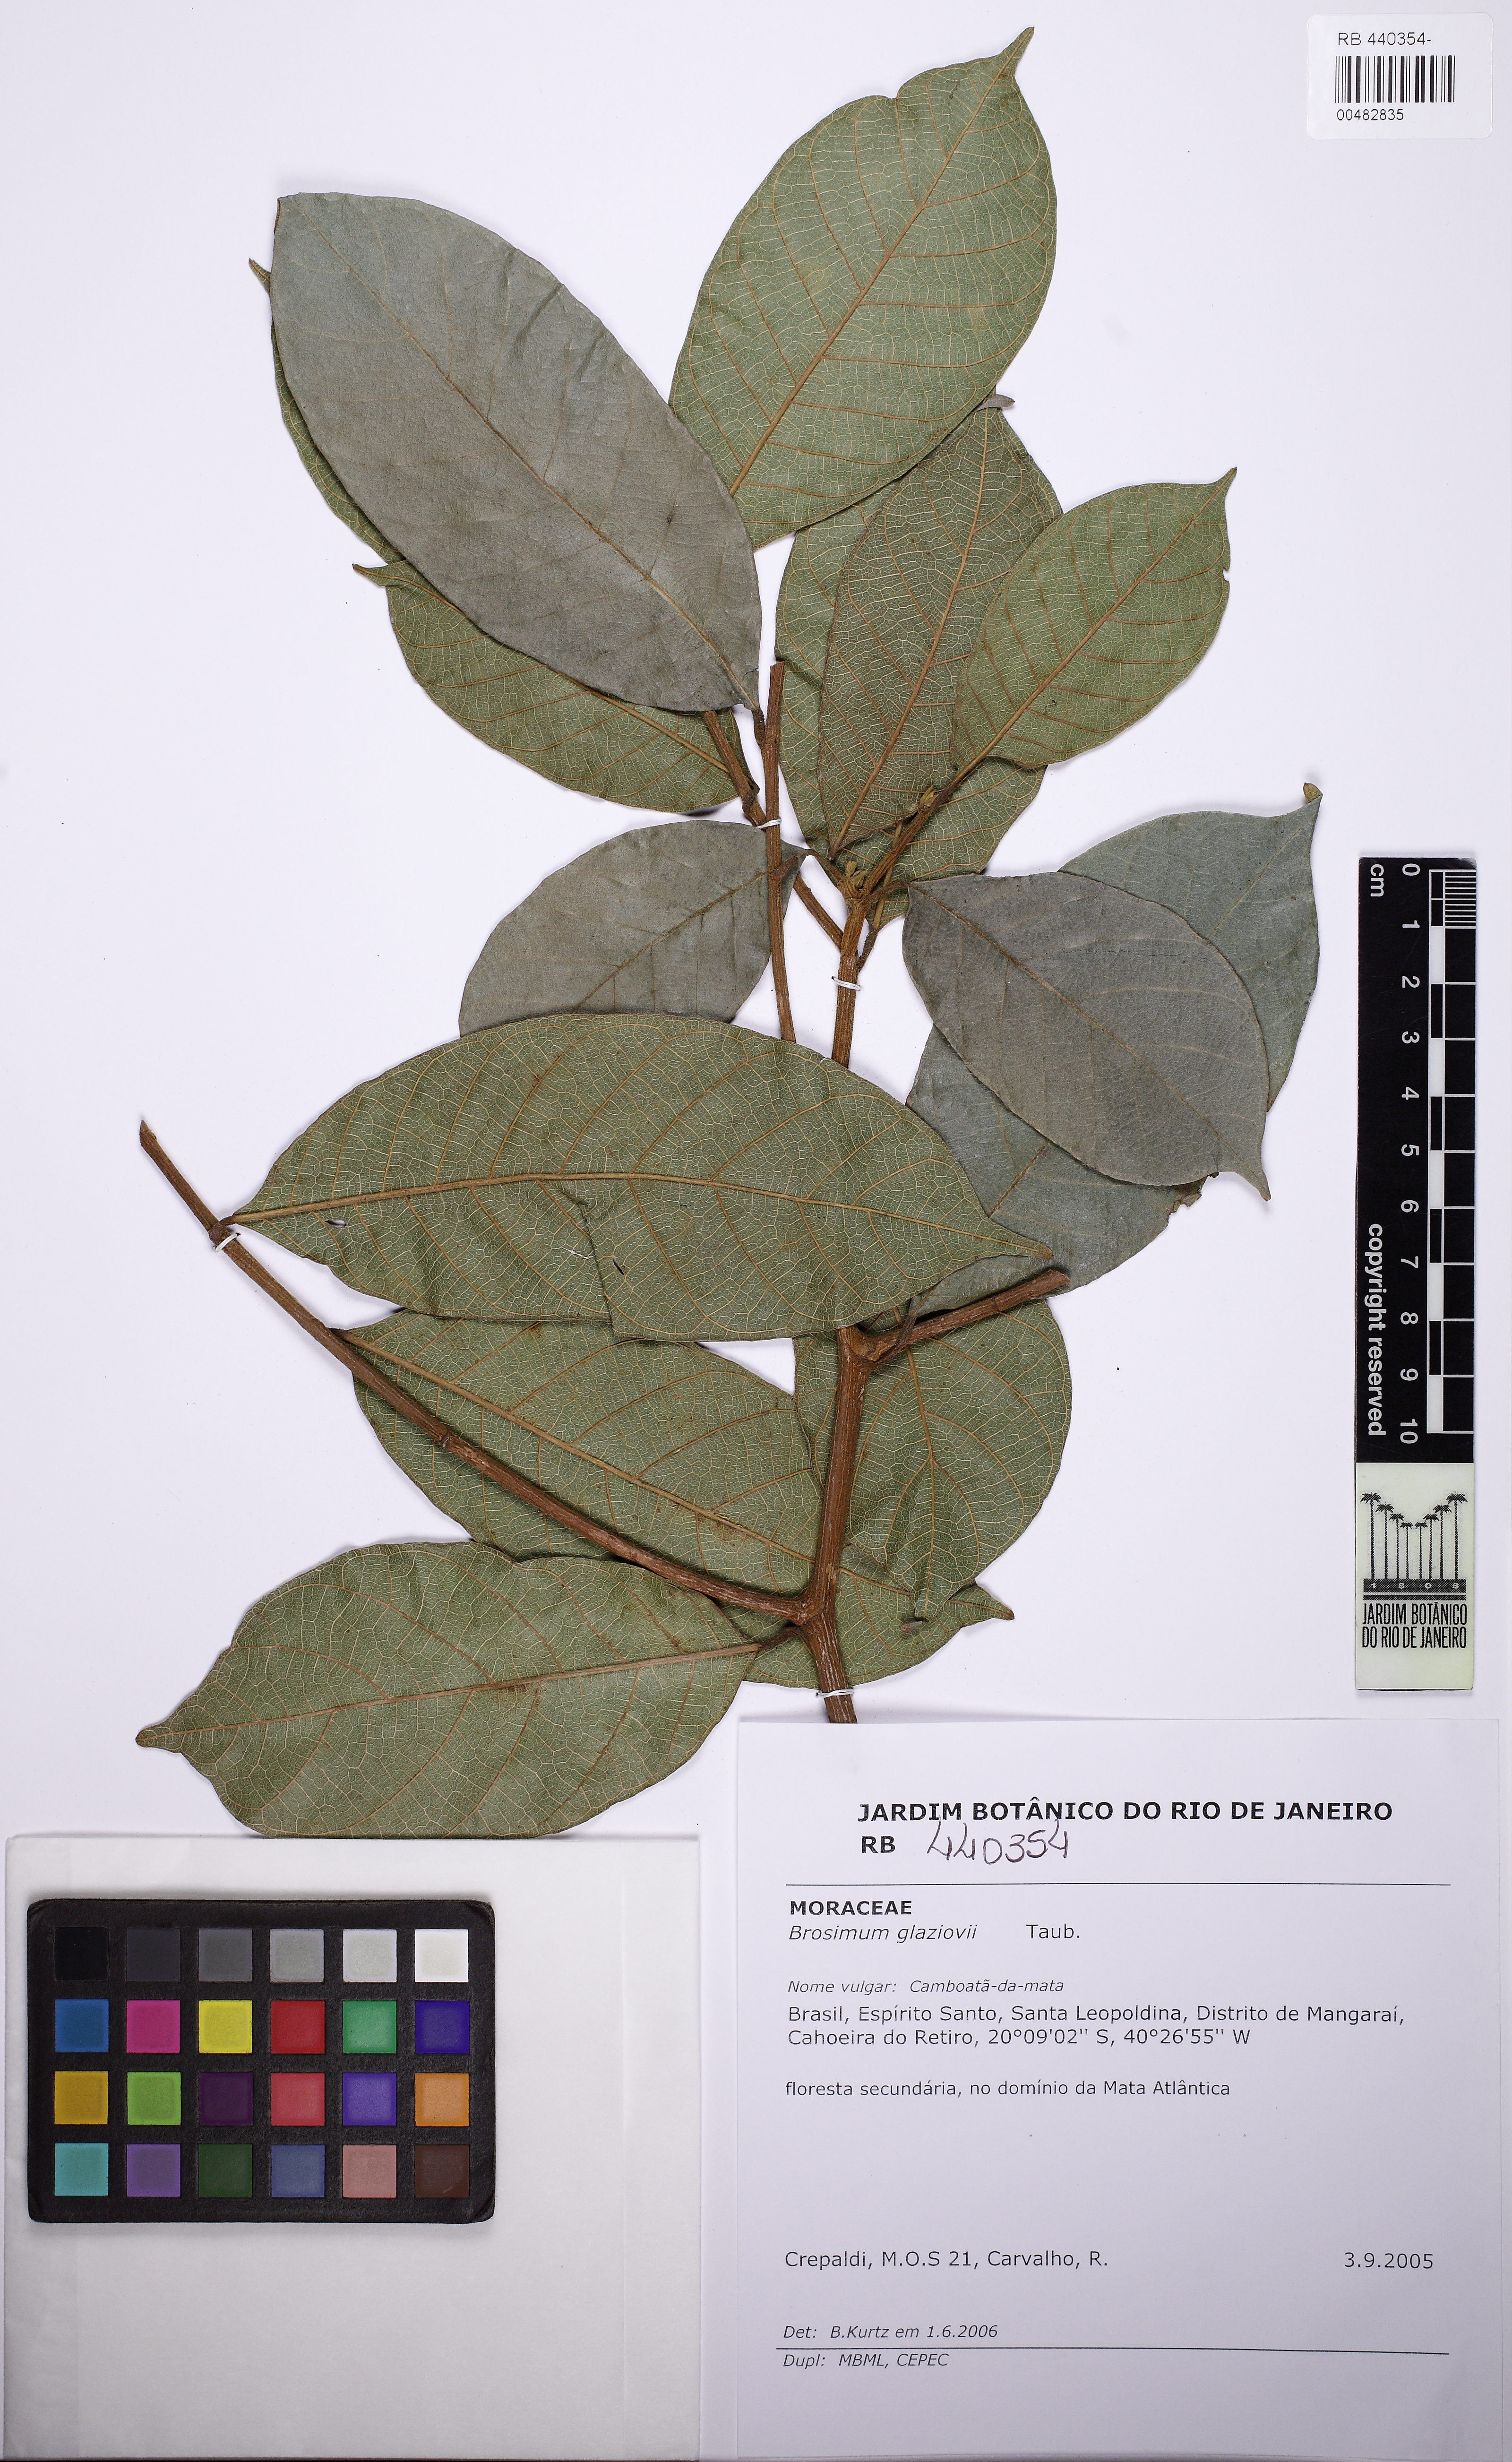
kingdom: Plantae
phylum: Tracheophyta
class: Magnoliopsida
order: Rosales
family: Moraceae
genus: Brosimum
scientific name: Brosimum glaziovii
